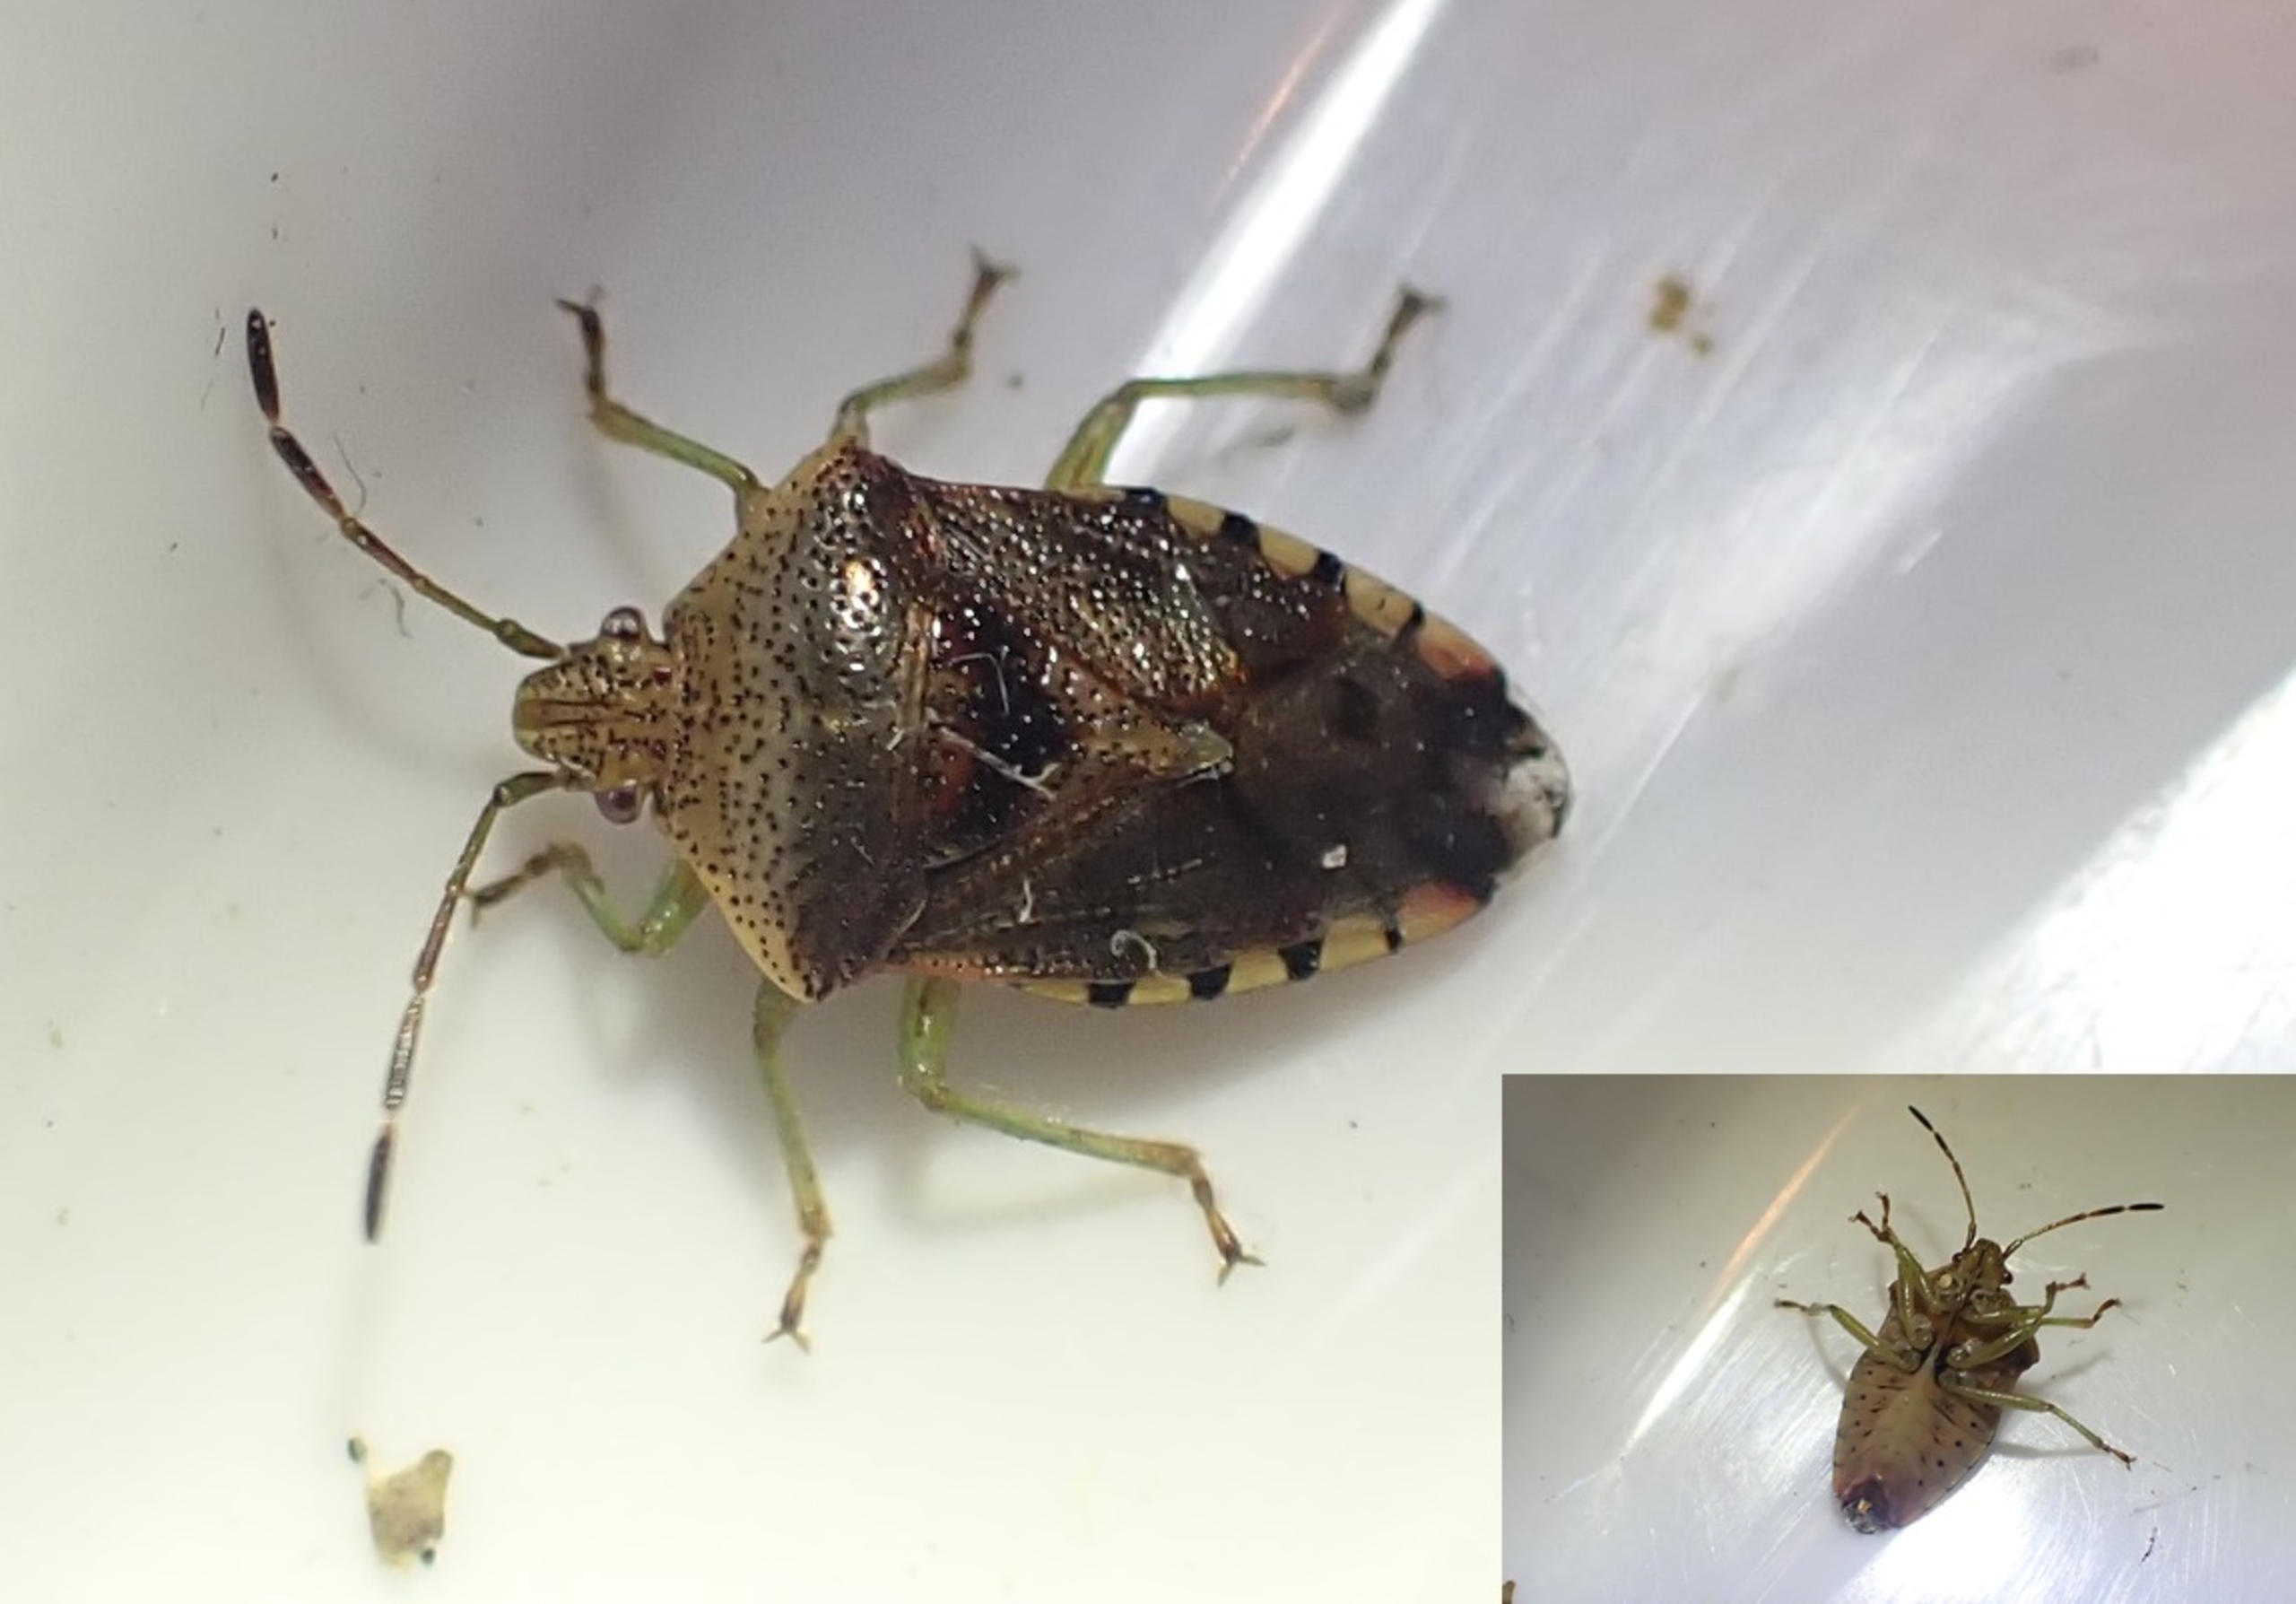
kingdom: Animalia
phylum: Arthropoda
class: Insecta
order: Hemiptera
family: Acanthosomatidae
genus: Elasmucha
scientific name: Elasmucha grisea
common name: Almindelig birketæge
